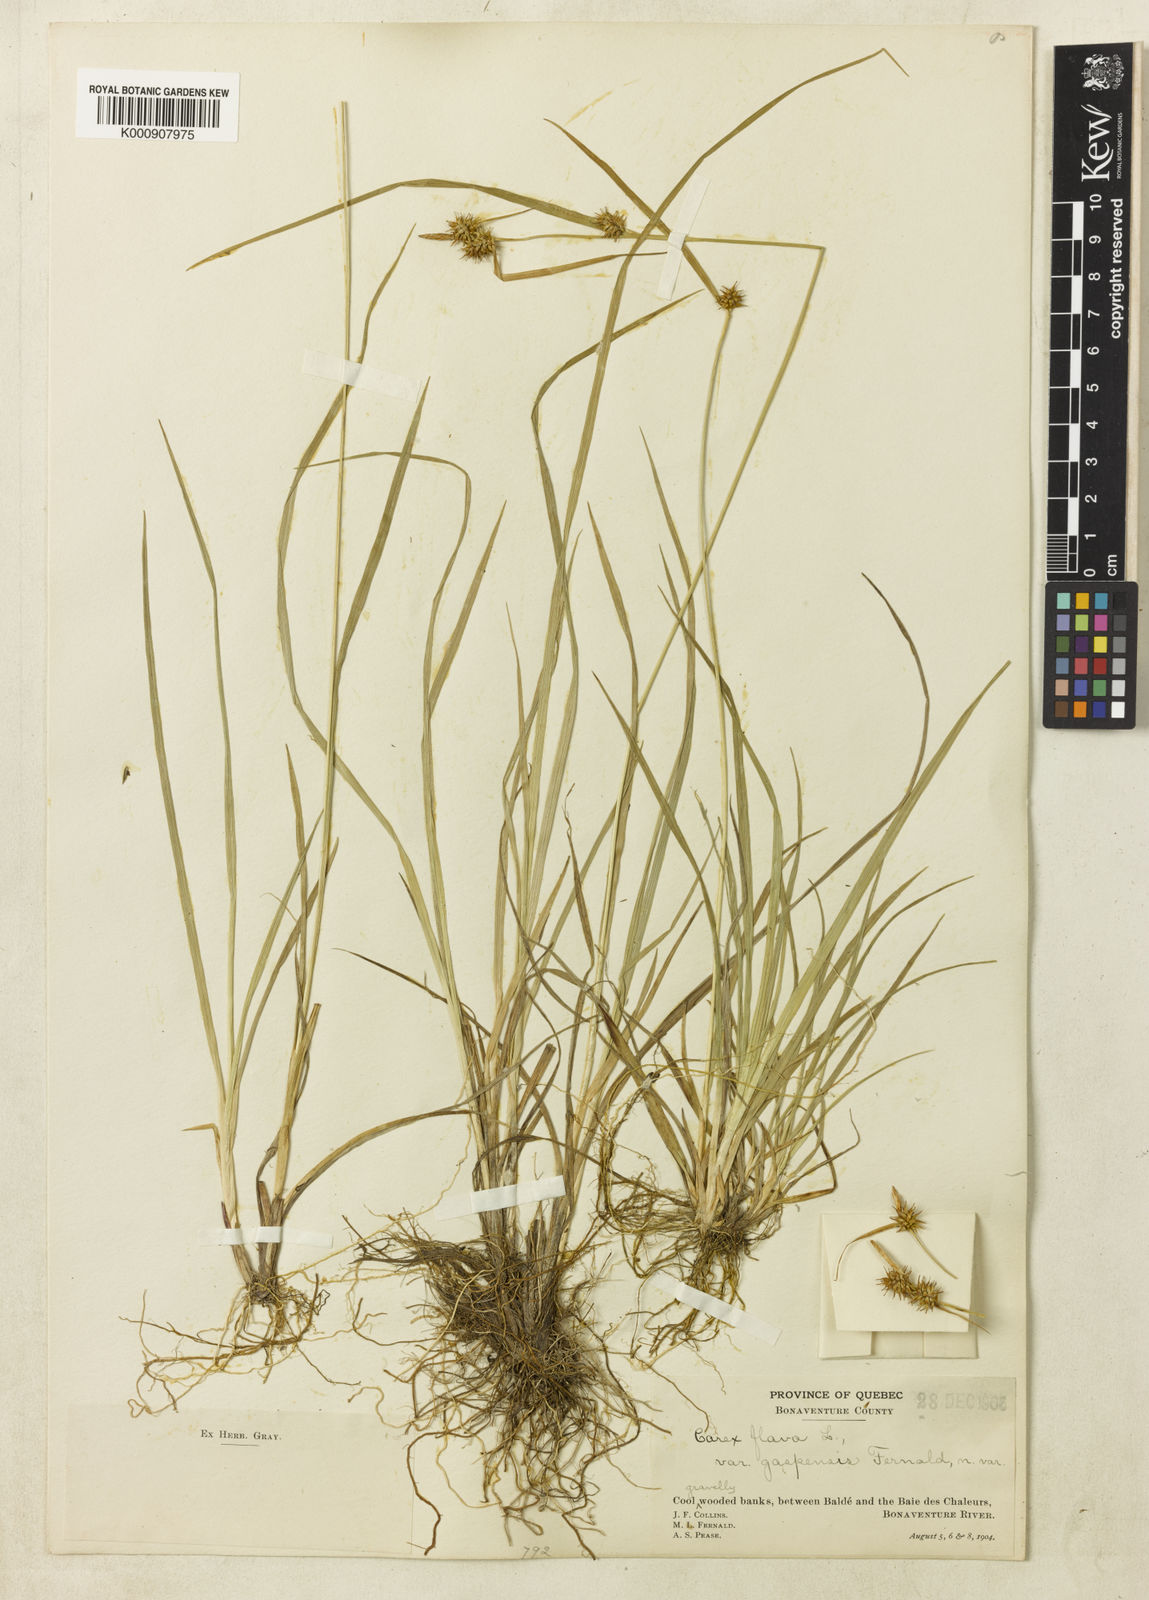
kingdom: Plantae
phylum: Tracheophyta
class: Liliopsida
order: Poales
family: Cyperaceae
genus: Carex
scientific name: Carex flava
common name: Large yellow-sedge
